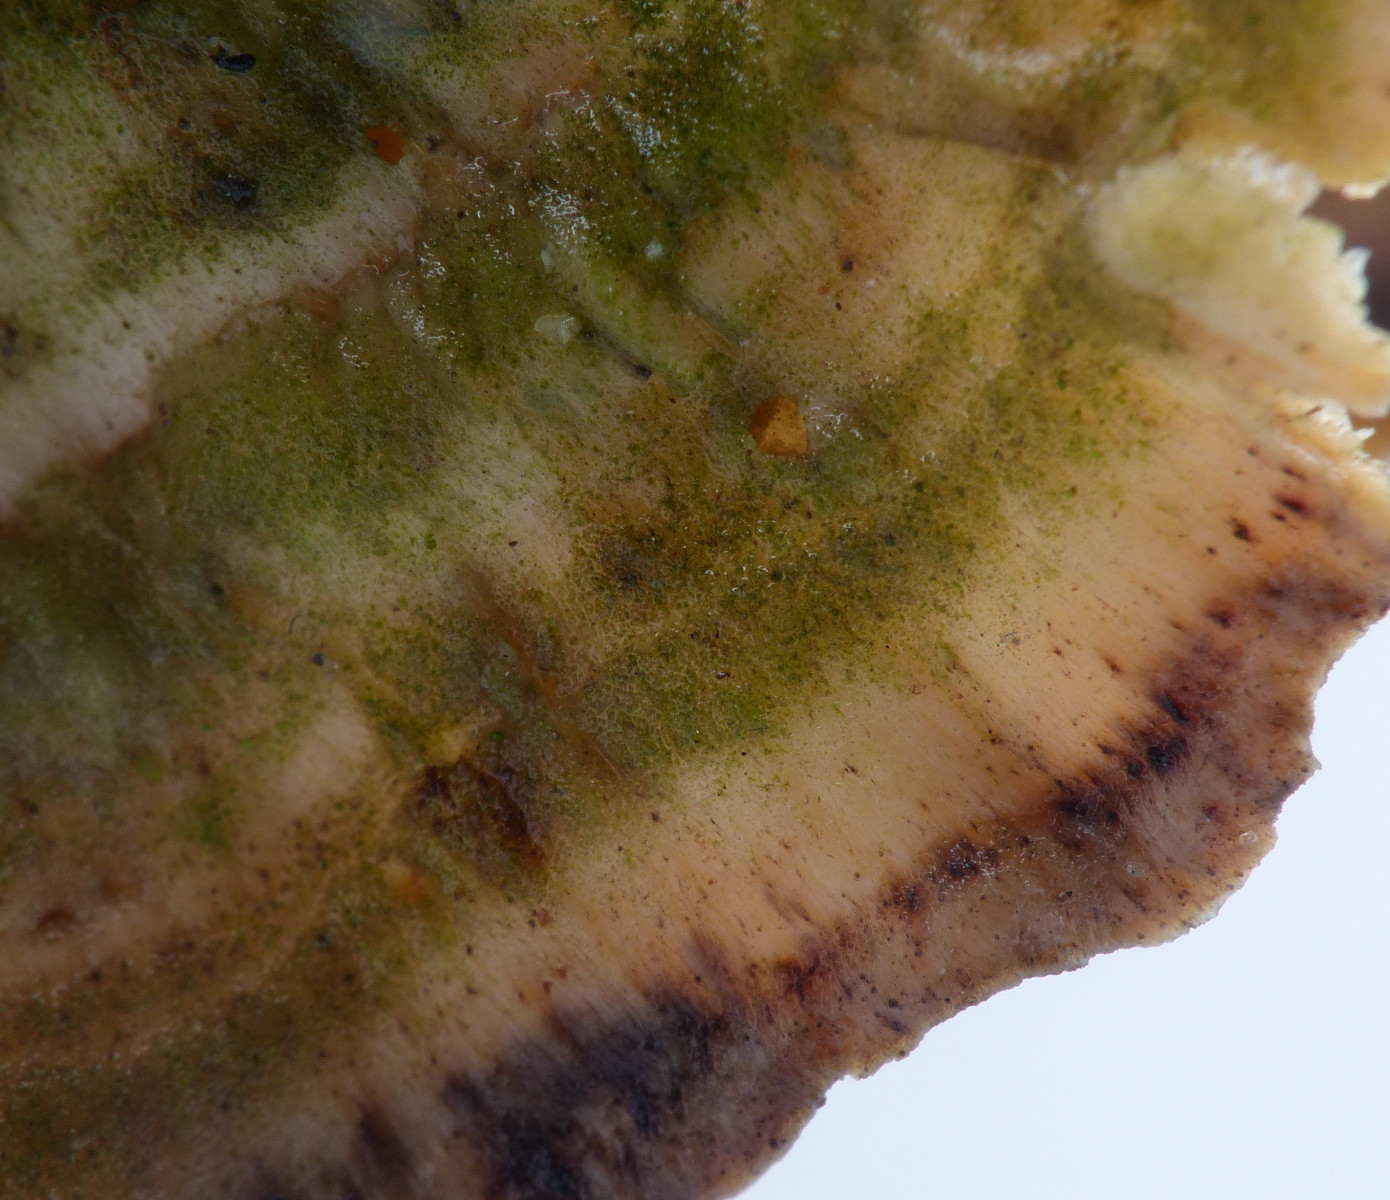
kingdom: Fungi
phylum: Basidiomycota
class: Agaricomycetes
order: Polyporales
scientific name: Polyporales
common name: poresvampordenen
